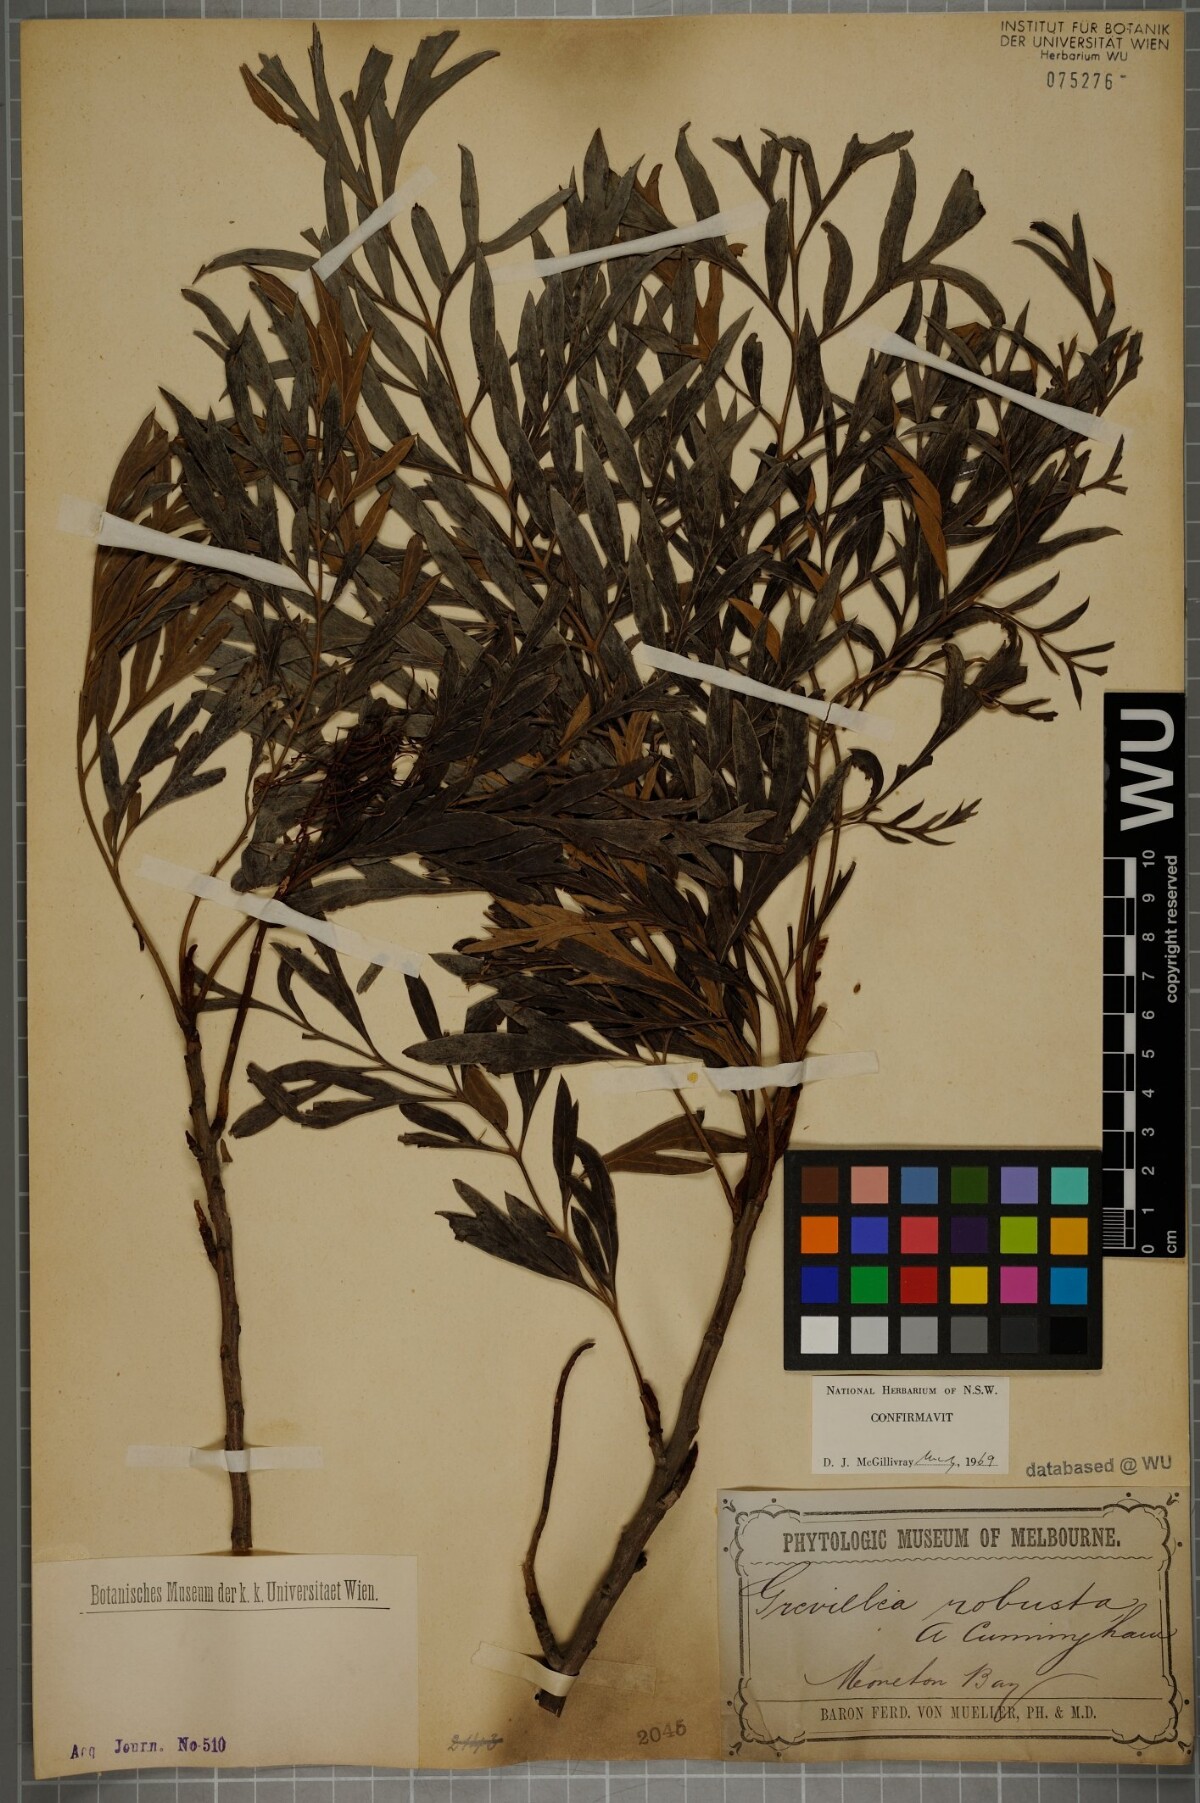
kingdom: Plantae
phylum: Tracheophyta
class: Magnoliopsida
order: Proteales
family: Proteaceae
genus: Grevillea
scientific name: Grevillea robusta
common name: Silkoak
